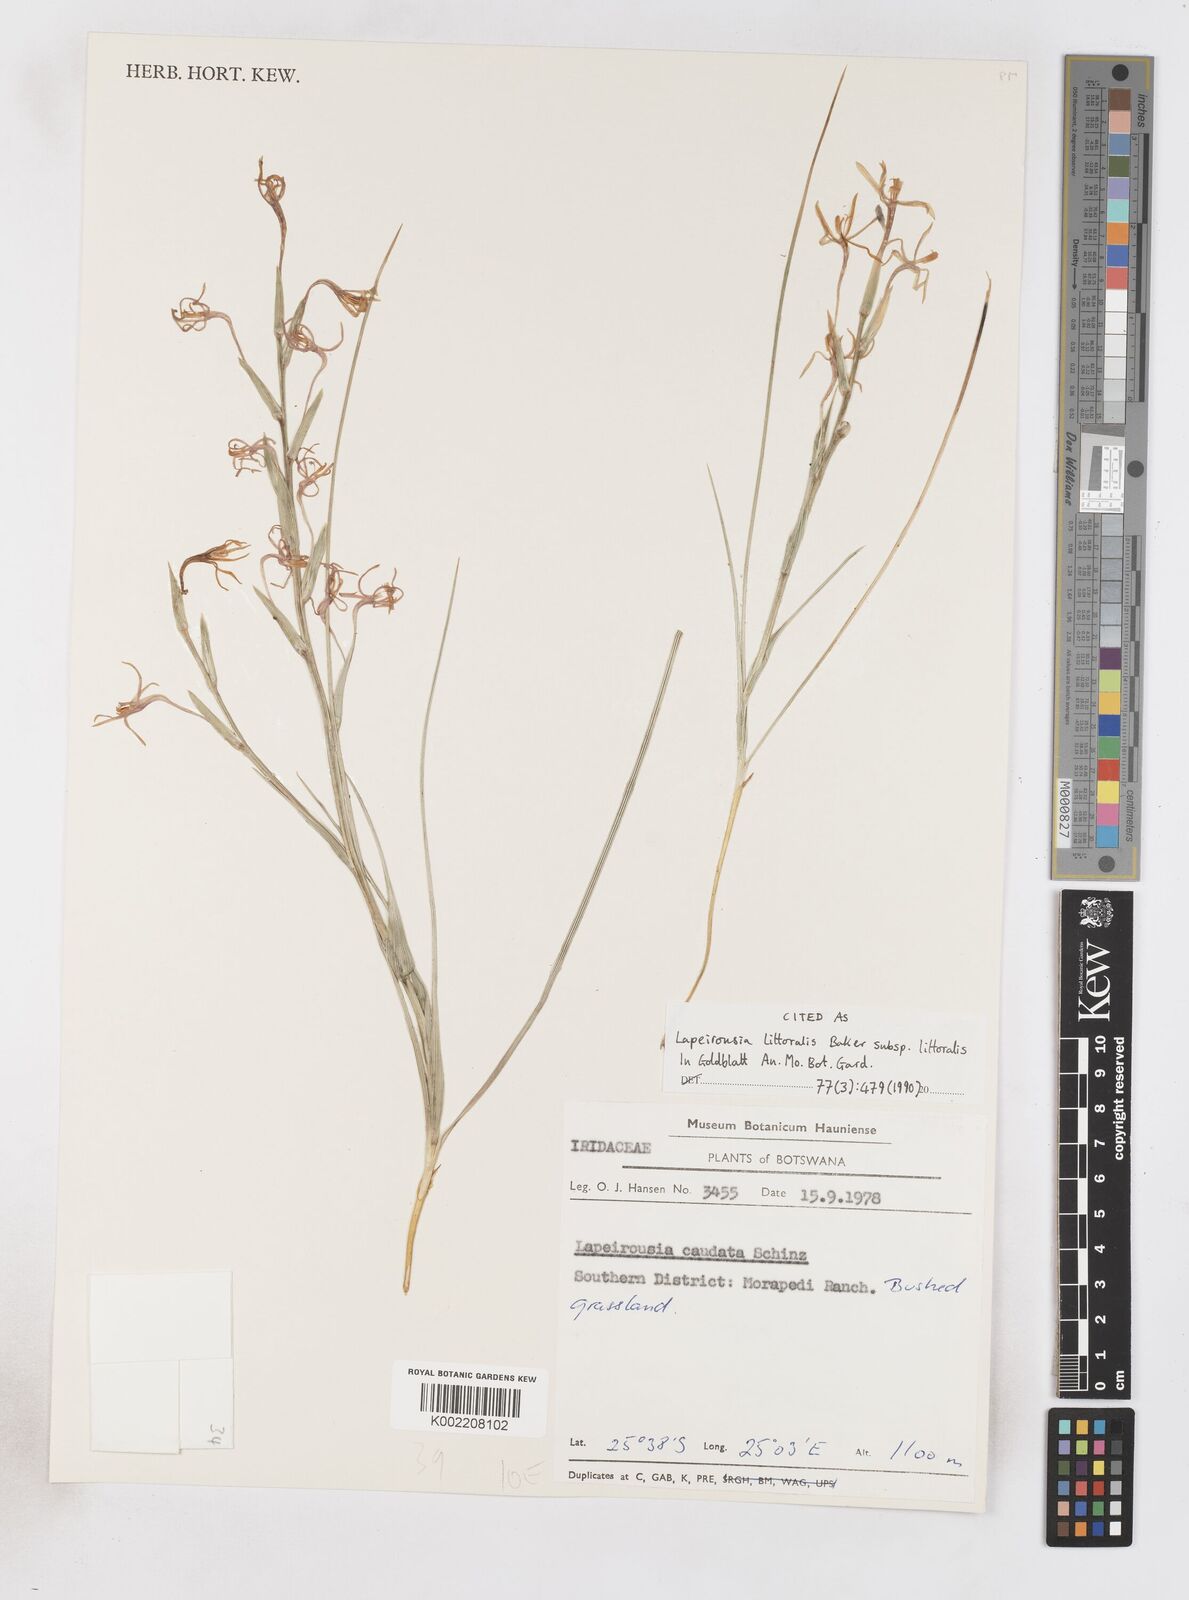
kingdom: Plantae
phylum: Tracheophyta
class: Liliopsida
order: Asparagales
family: Iridaceae
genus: Lapeirousia
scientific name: Lapeirousia littoralis
